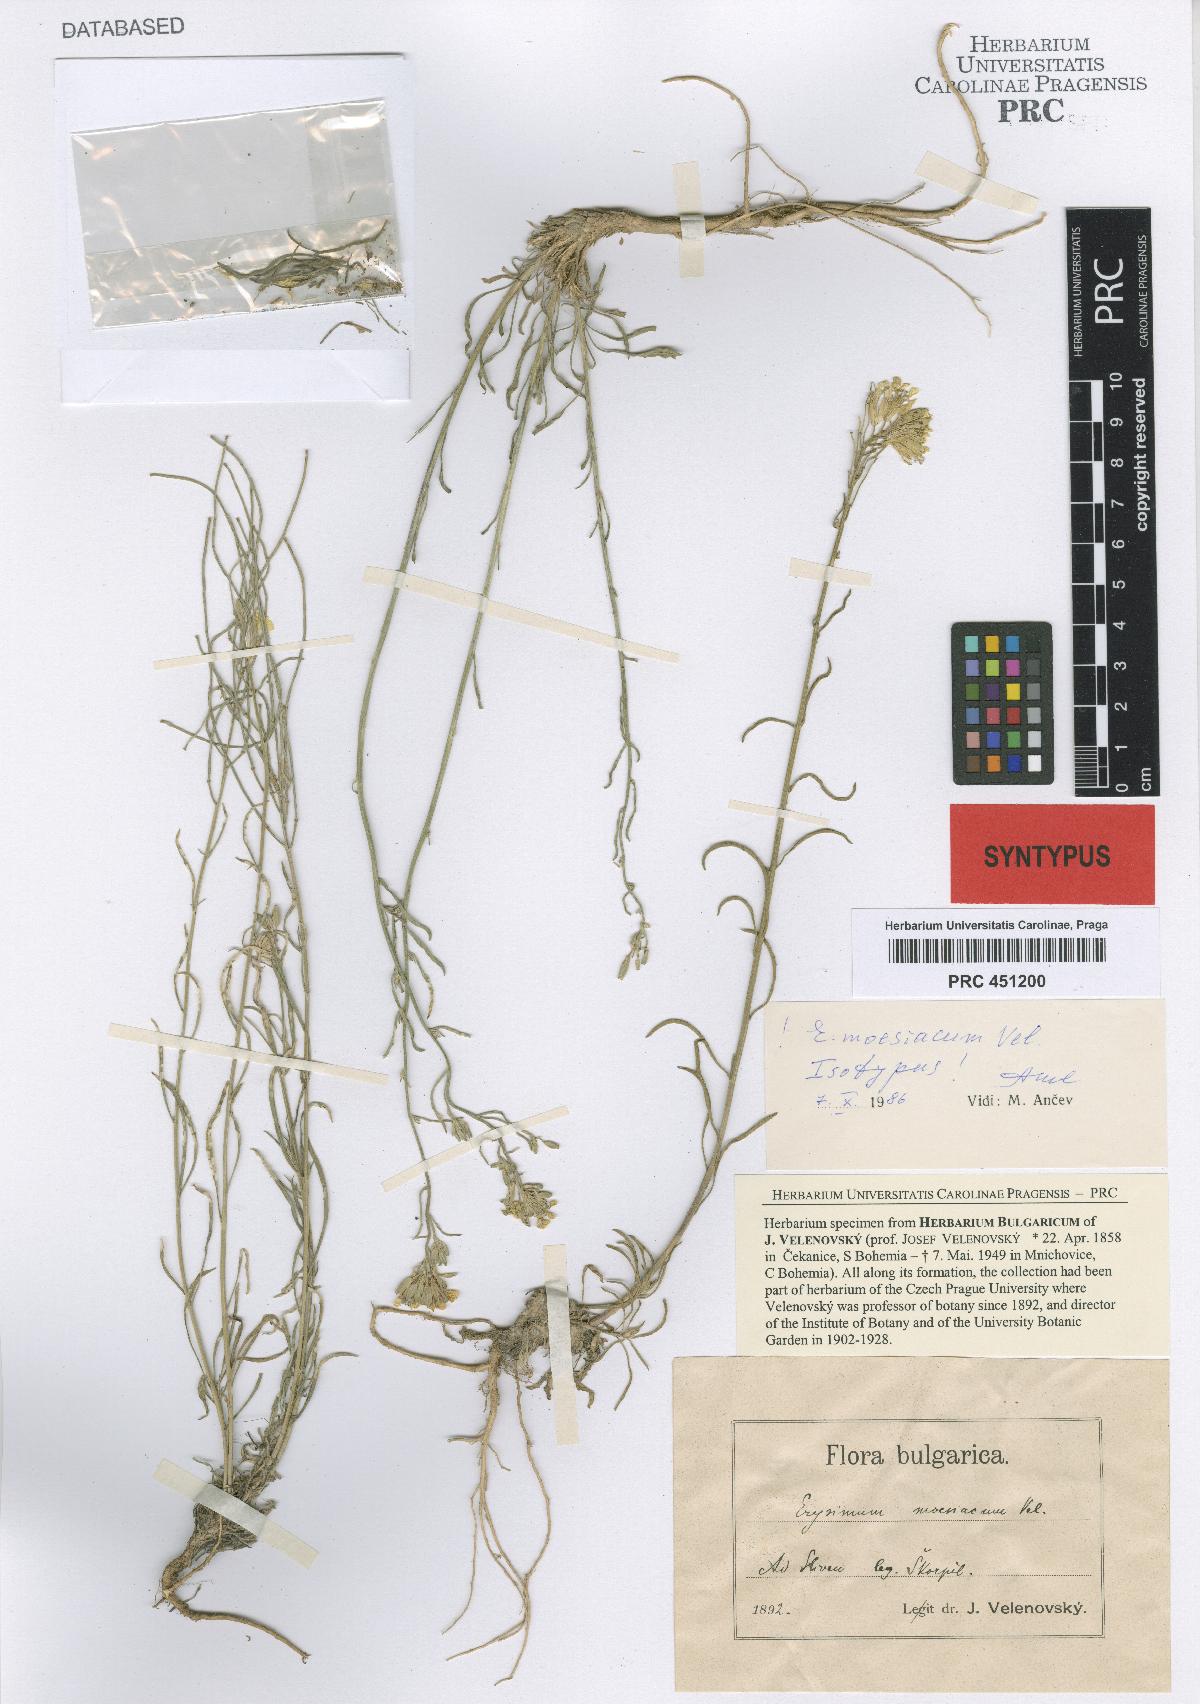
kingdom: Plantae
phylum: Tracheophyta
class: Magnoliopsida
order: Brassicales
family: Brassicaceae
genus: Erysimum
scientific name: Erysimum moesiacum
